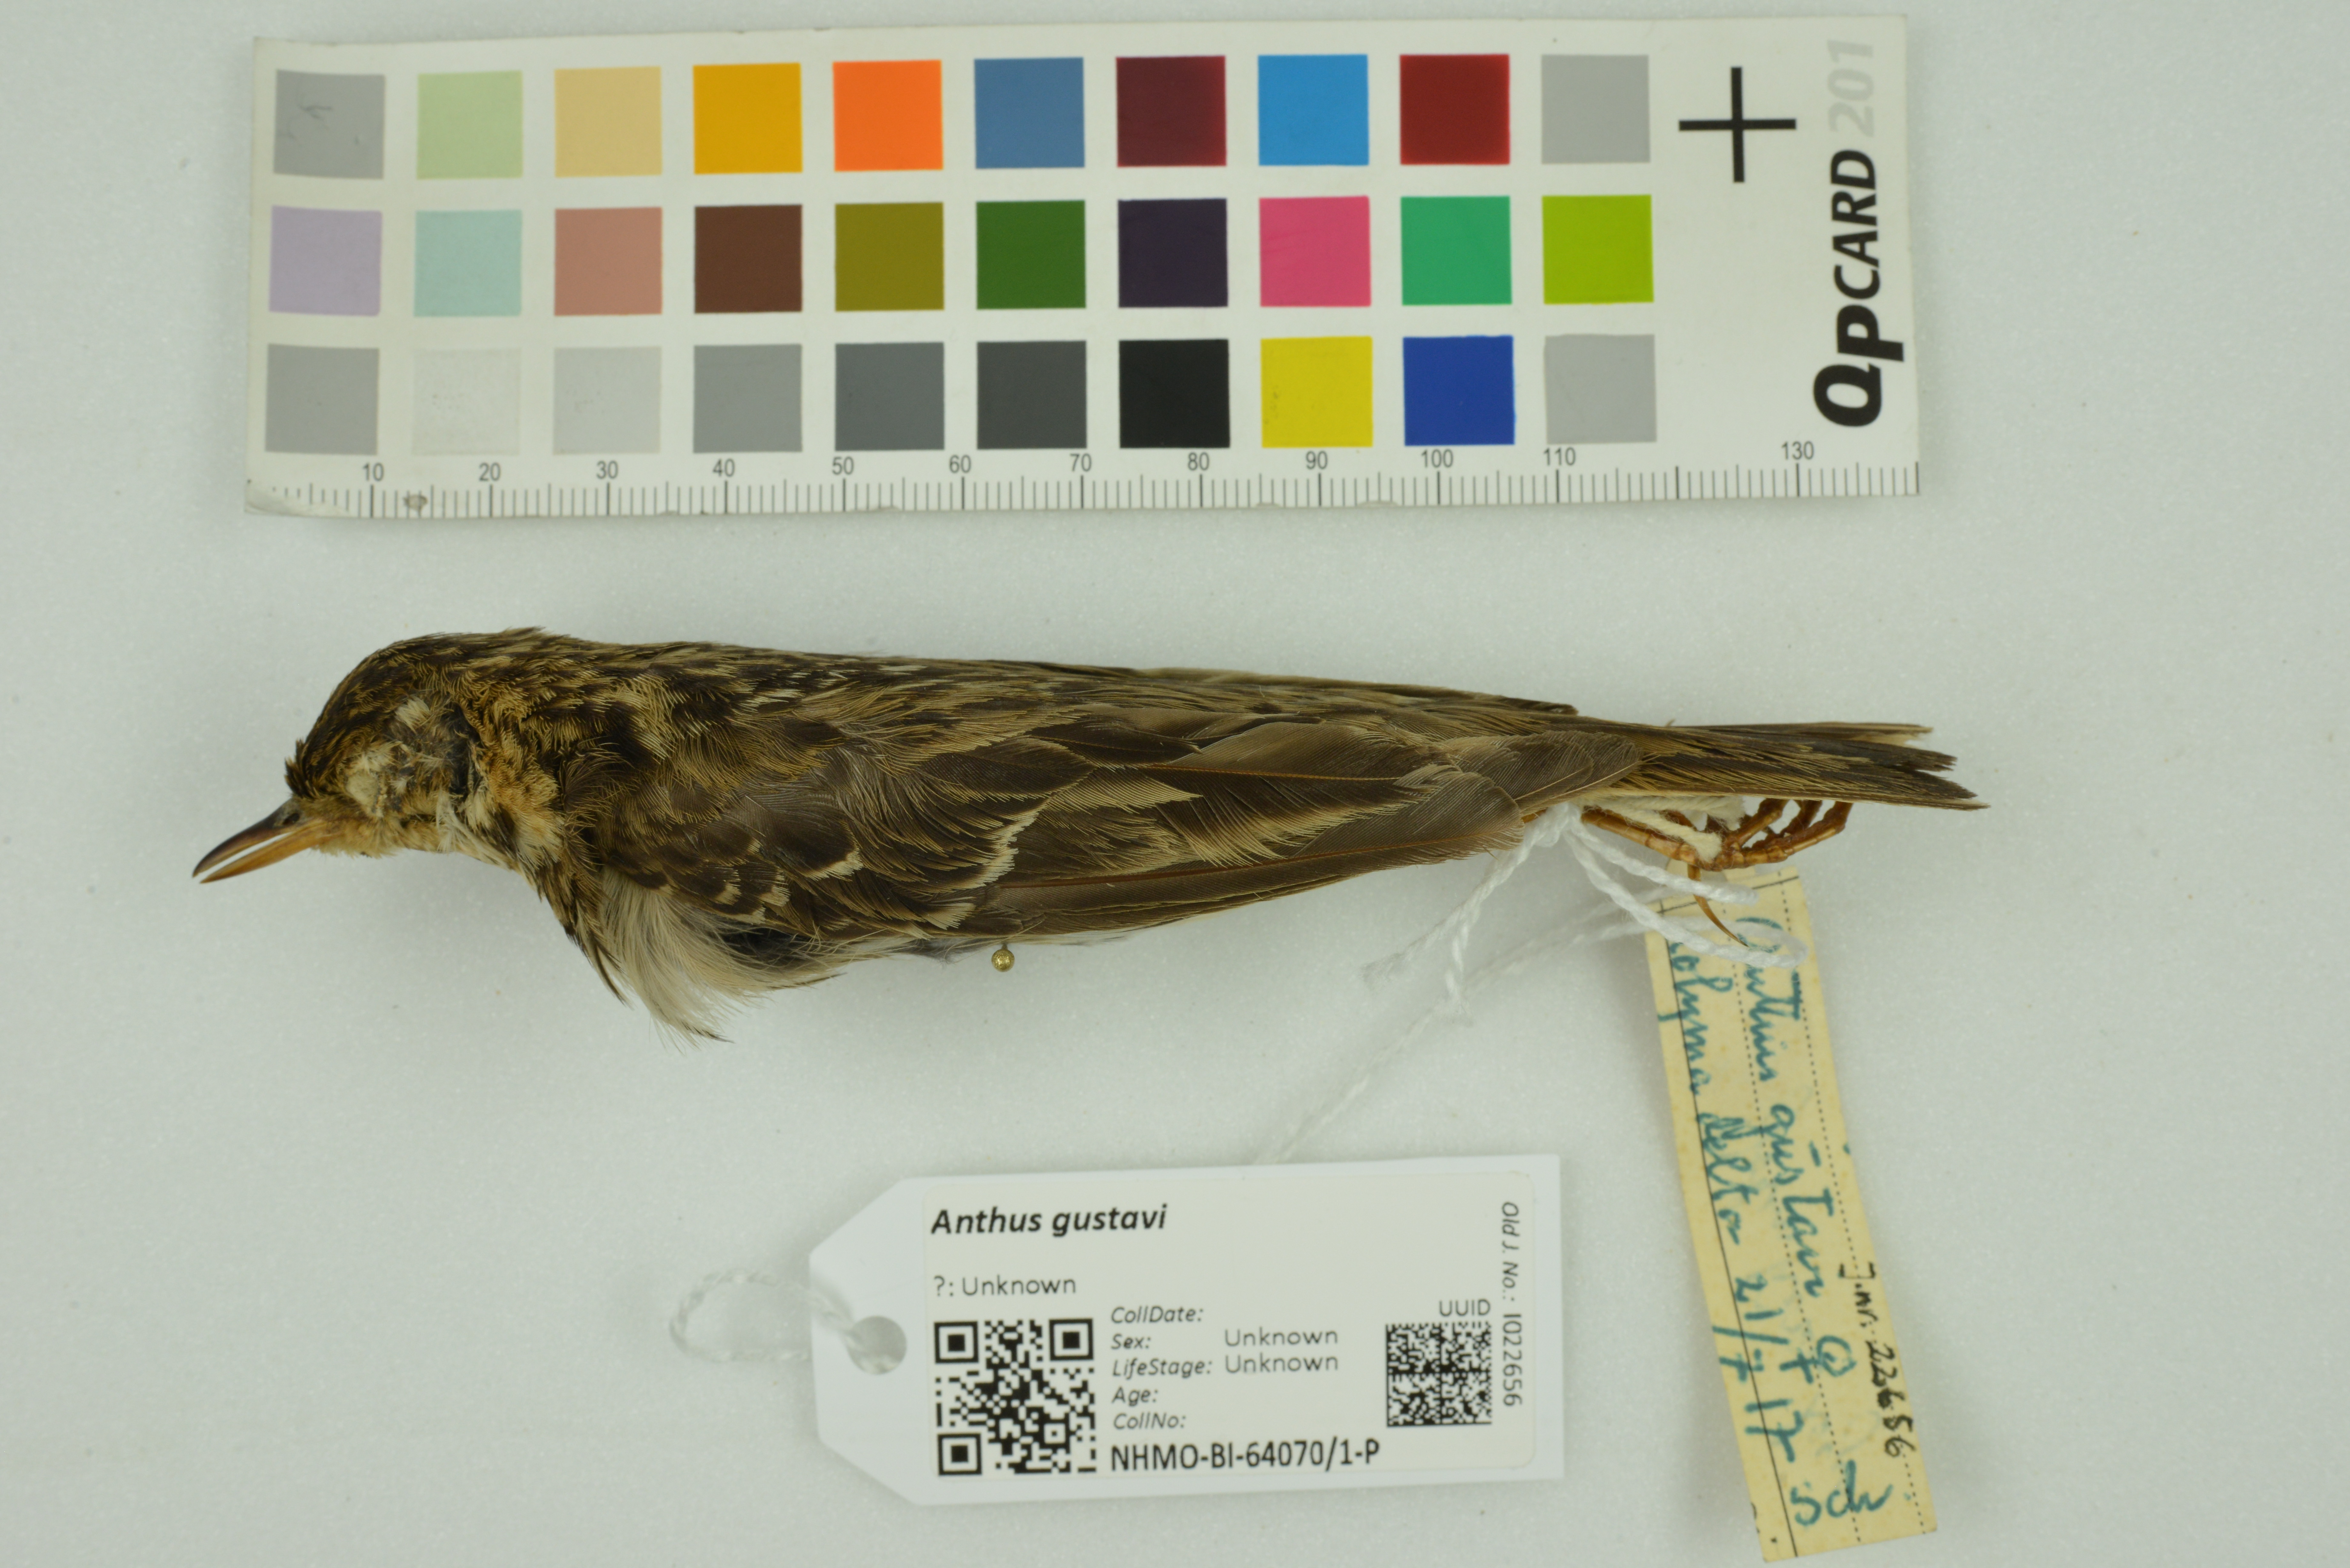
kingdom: Animalia
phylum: Chordata
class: Aves
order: Passeriformes
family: Motacillidae
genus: Anthus
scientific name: Anthus gustavi
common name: Pechora pipit
